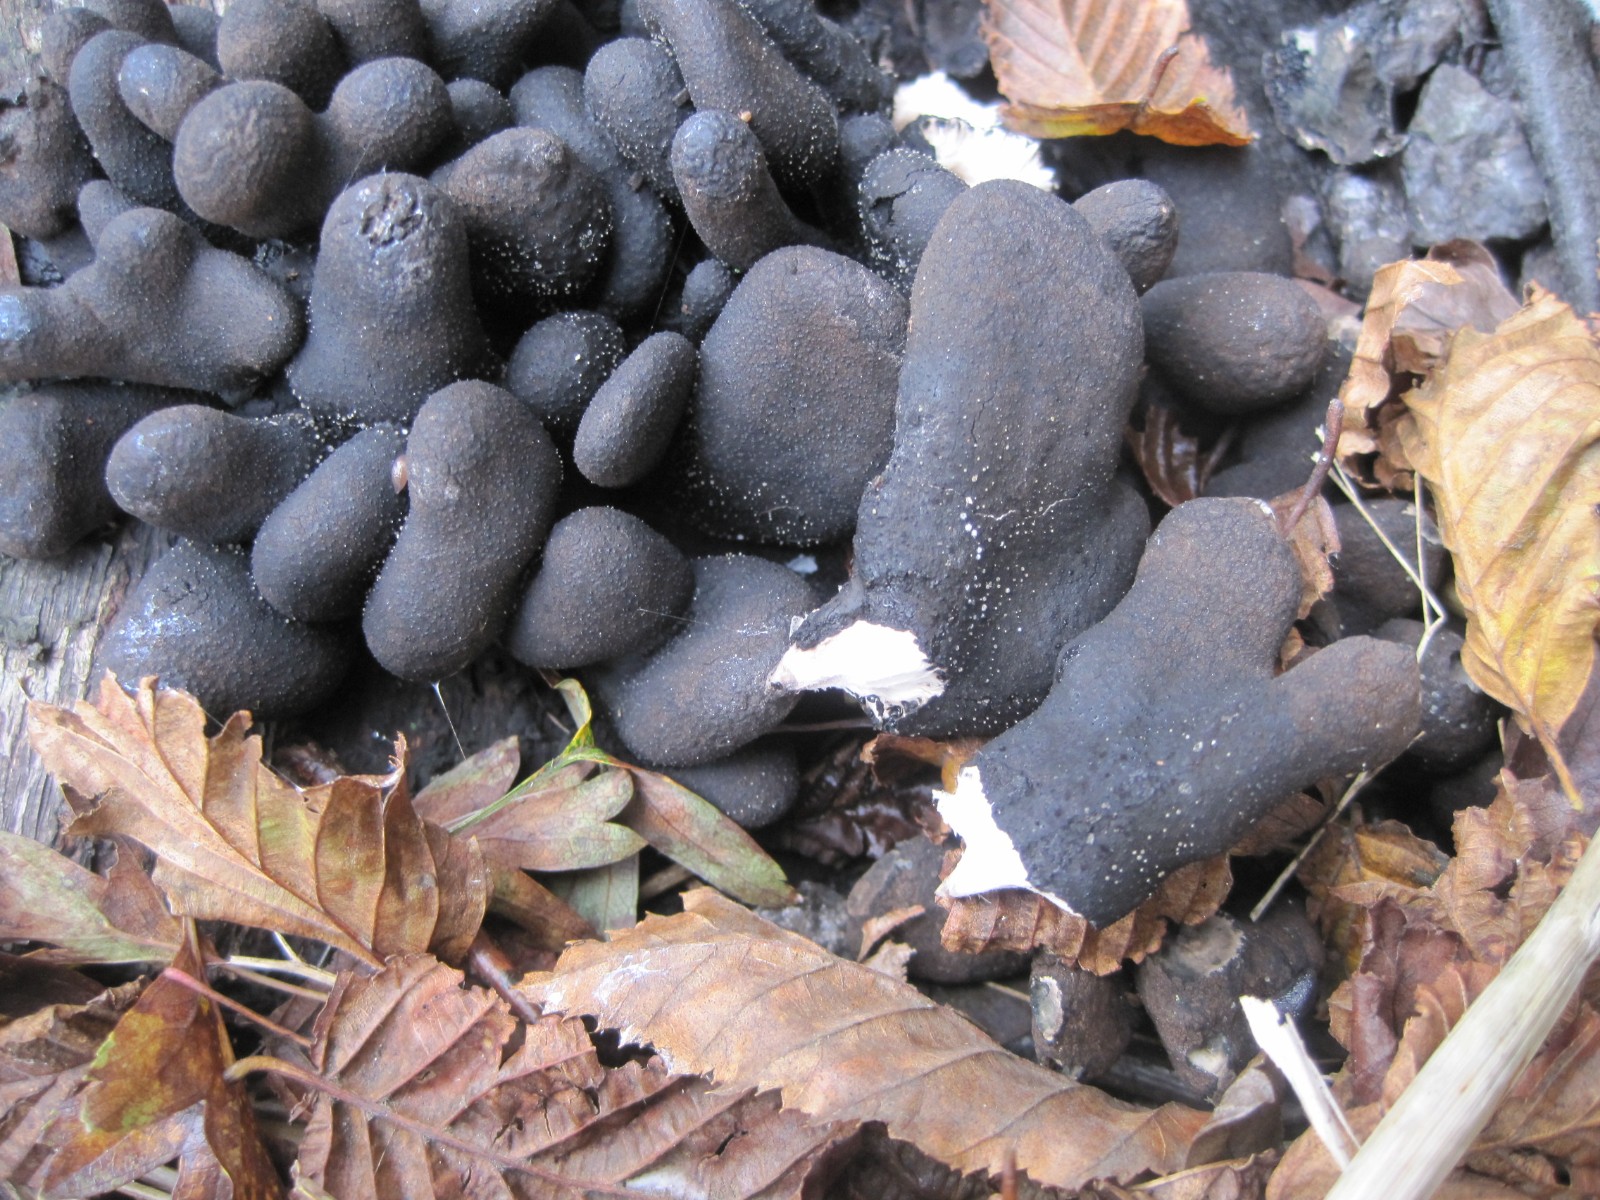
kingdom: Fungi
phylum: Ascomycota
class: Sordariomycetes
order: Xylariales
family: Xylariaceae
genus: Xylaria
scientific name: Xylaria polymorpha
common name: kølle-stødsvamp
